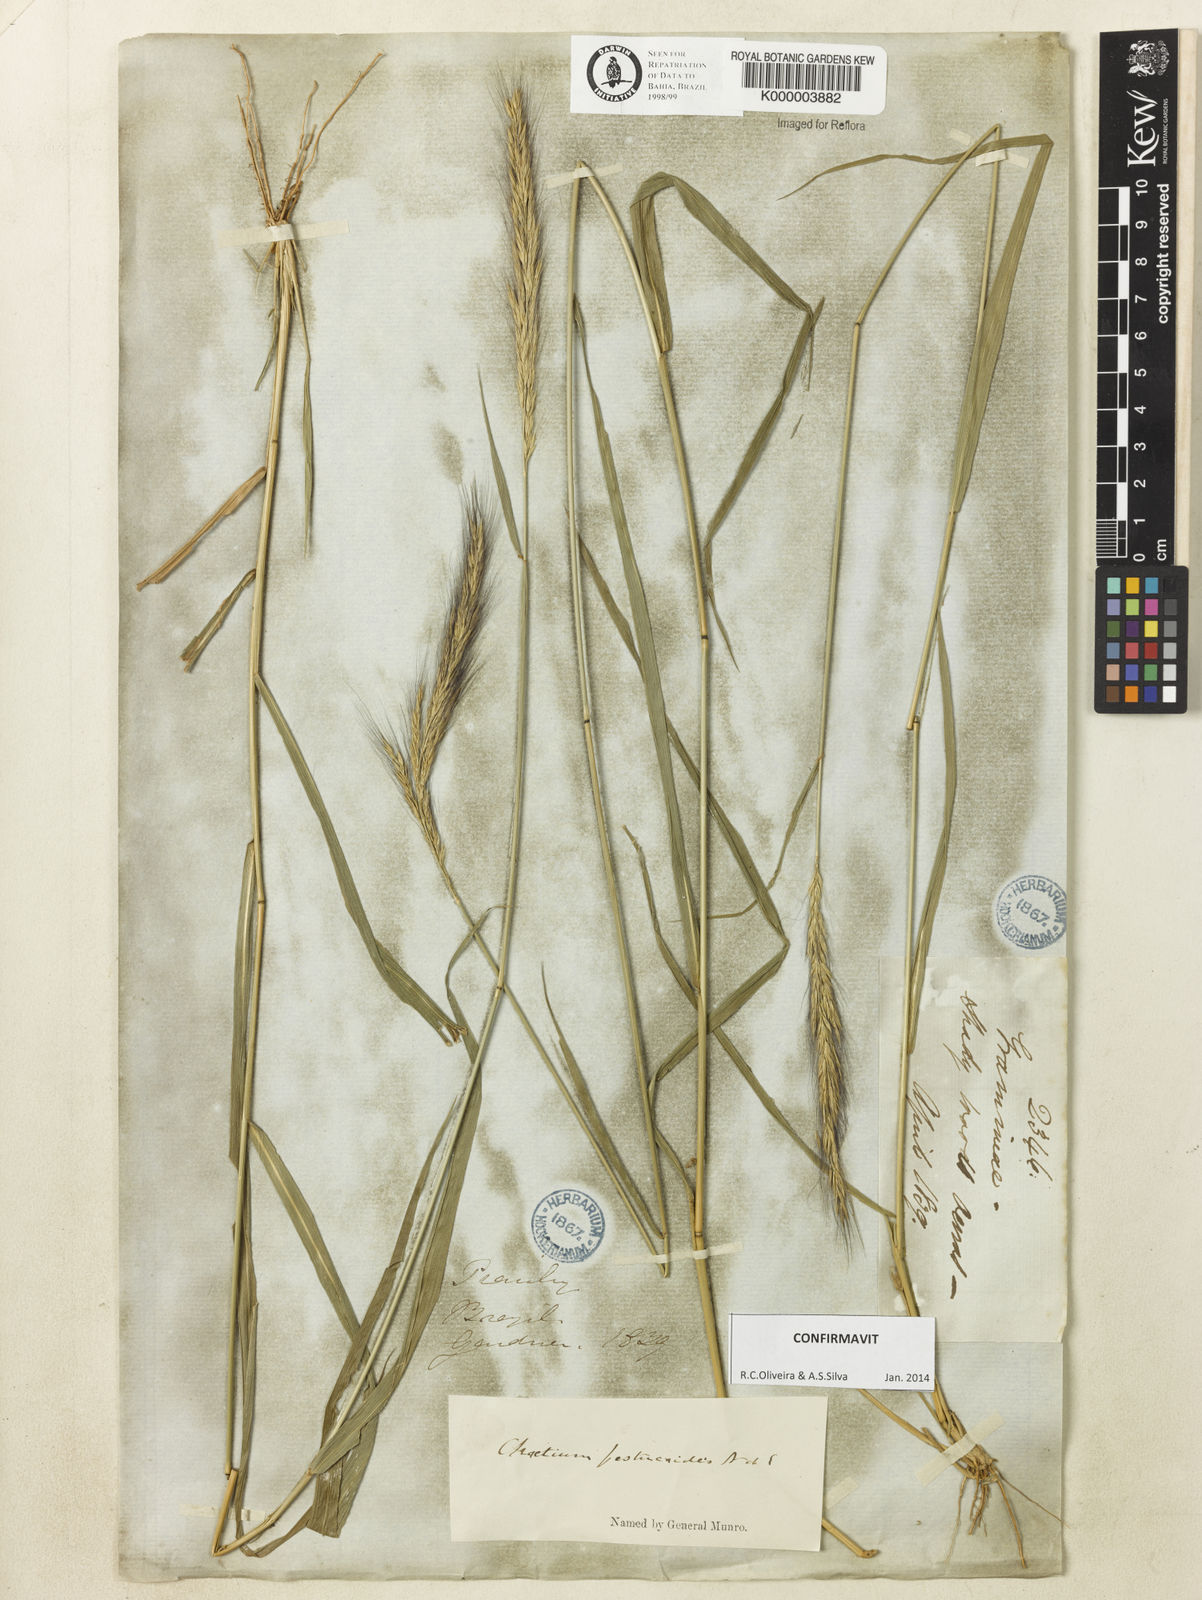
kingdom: Plantae
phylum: Tracheophyta
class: Liliopsida
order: Poales
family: Poaceae
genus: Chaetium
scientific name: Chaetium festucoides
